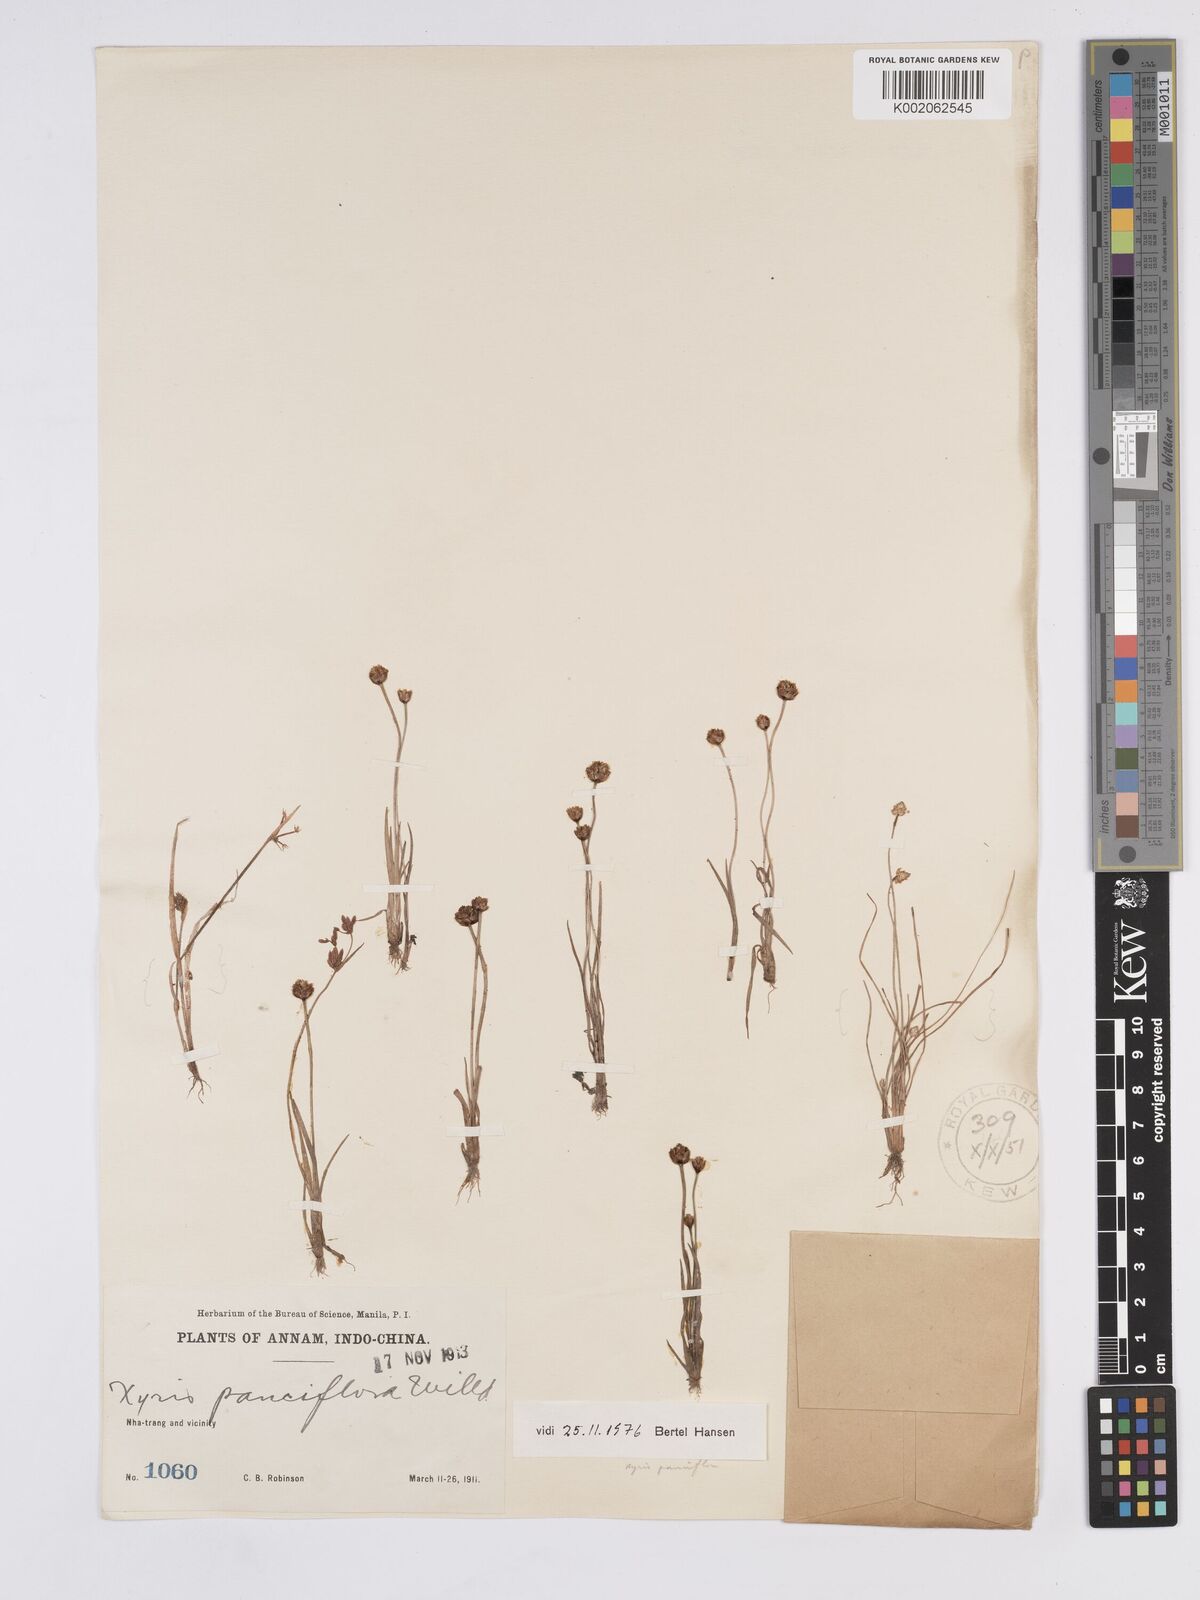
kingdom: Plantae
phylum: Tracheophyta
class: Liliopsida
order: Poales
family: Xyridaceae
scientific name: Xyridaceae
